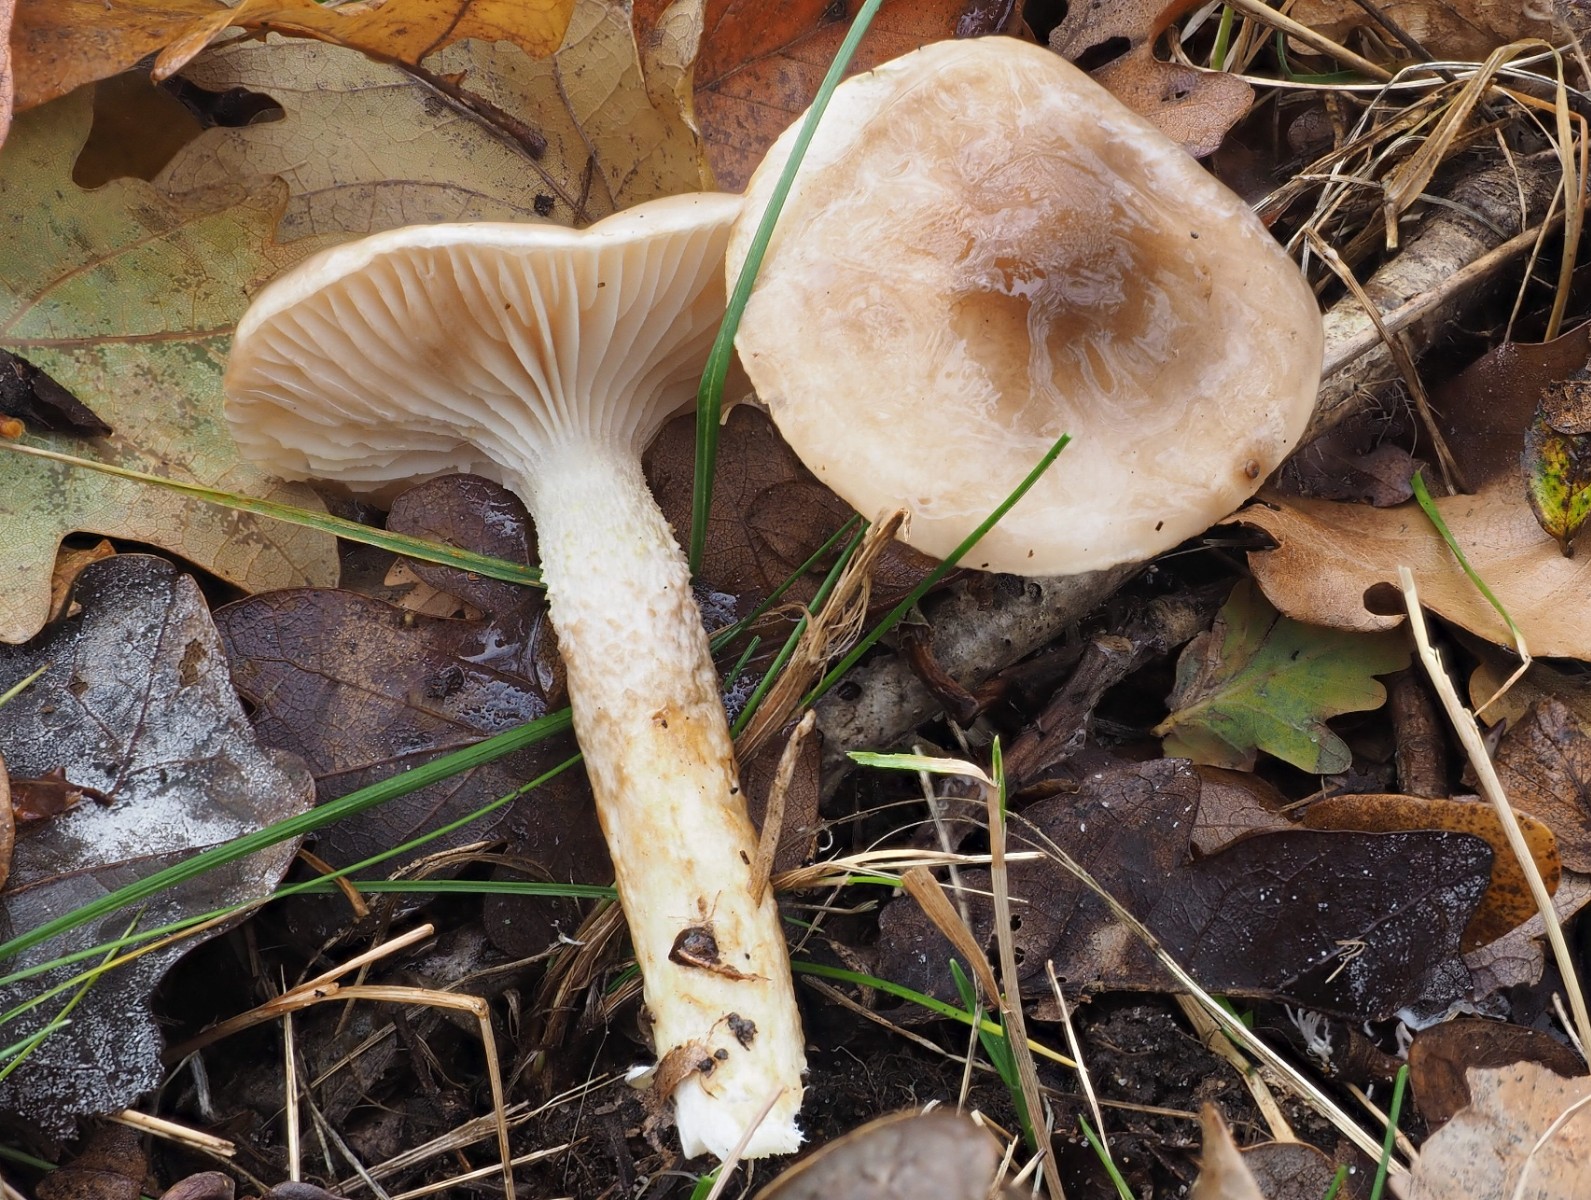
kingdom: Fungi
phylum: Basidiomycota
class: Agaricomycetes
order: Agaricales
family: Hygrophoraceae
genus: Hygrophorus
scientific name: Hygrophorus glutinifer
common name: tvefarvet sneglehat
